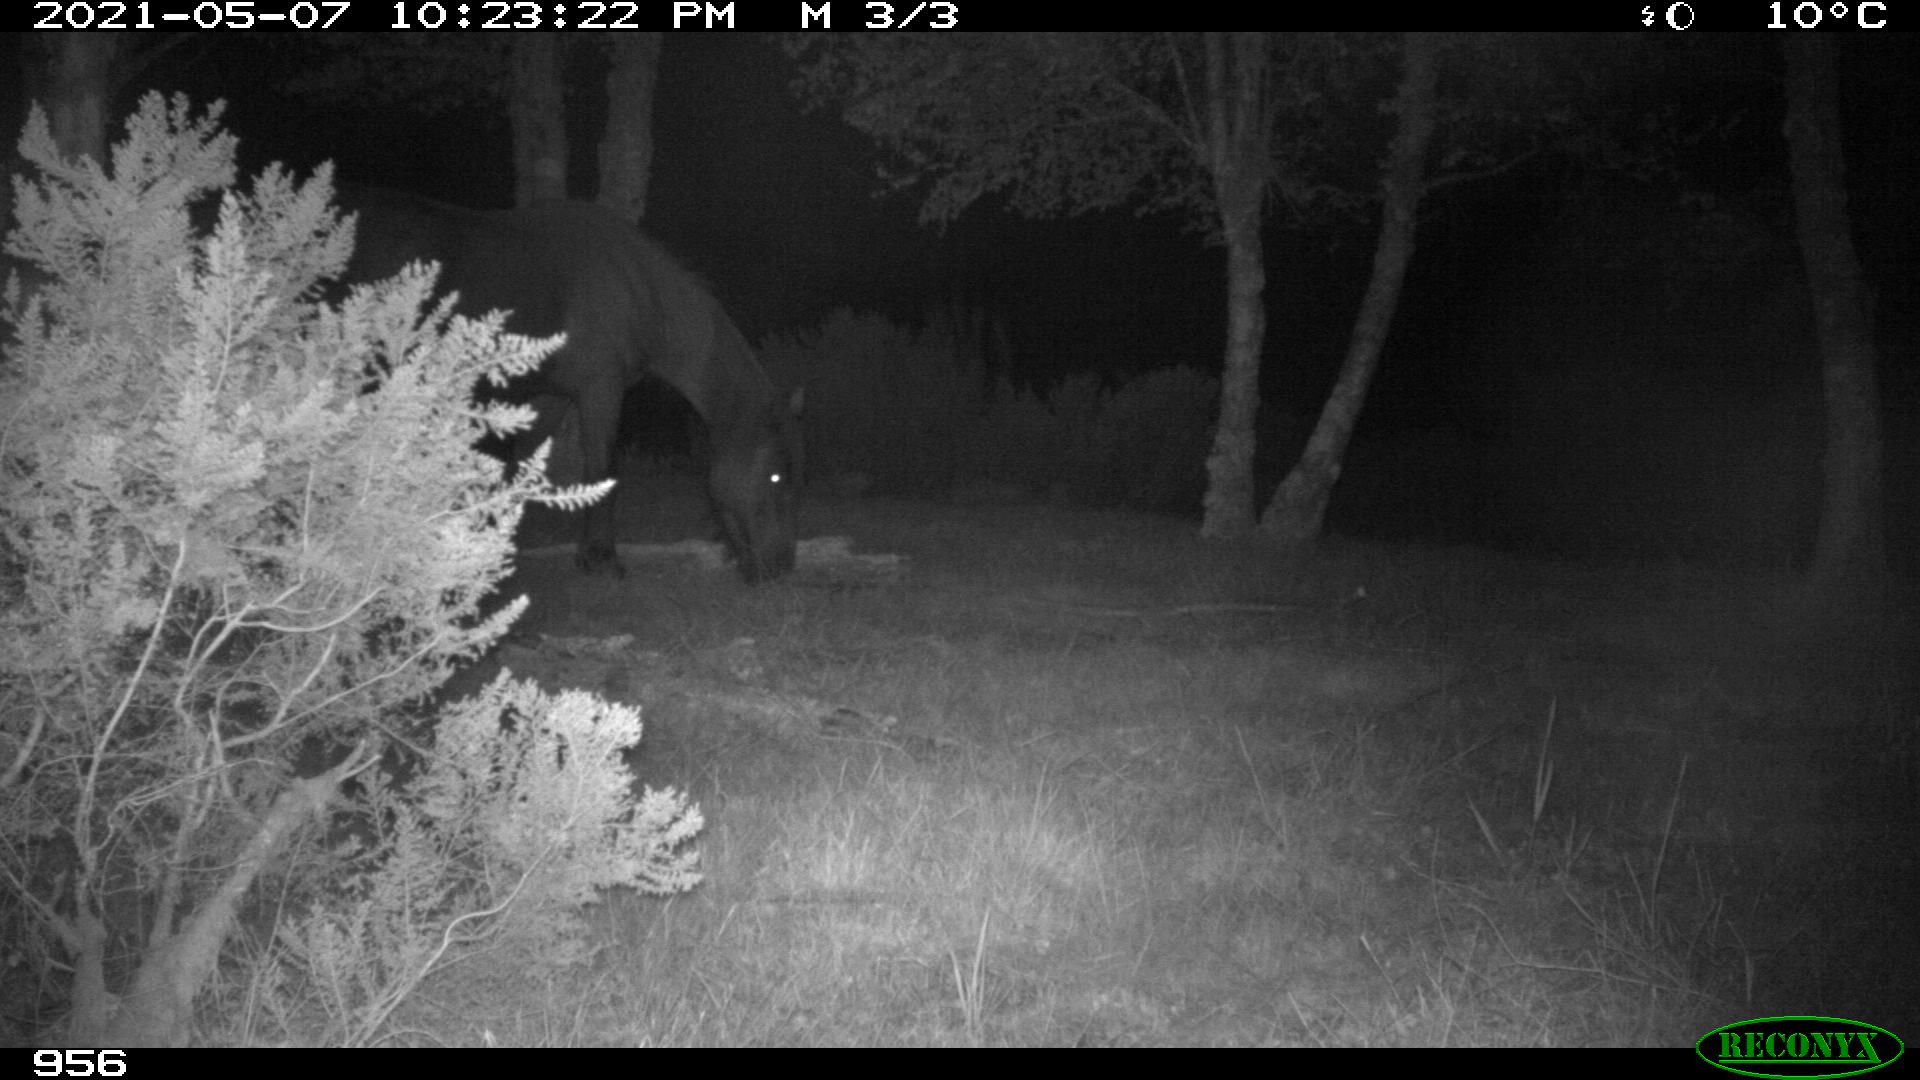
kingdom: Animalia
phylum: Chordata
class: Mammalia
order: Perissodactyla
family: Equidae
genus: Equus
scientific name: Equus caballus
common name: Horse
